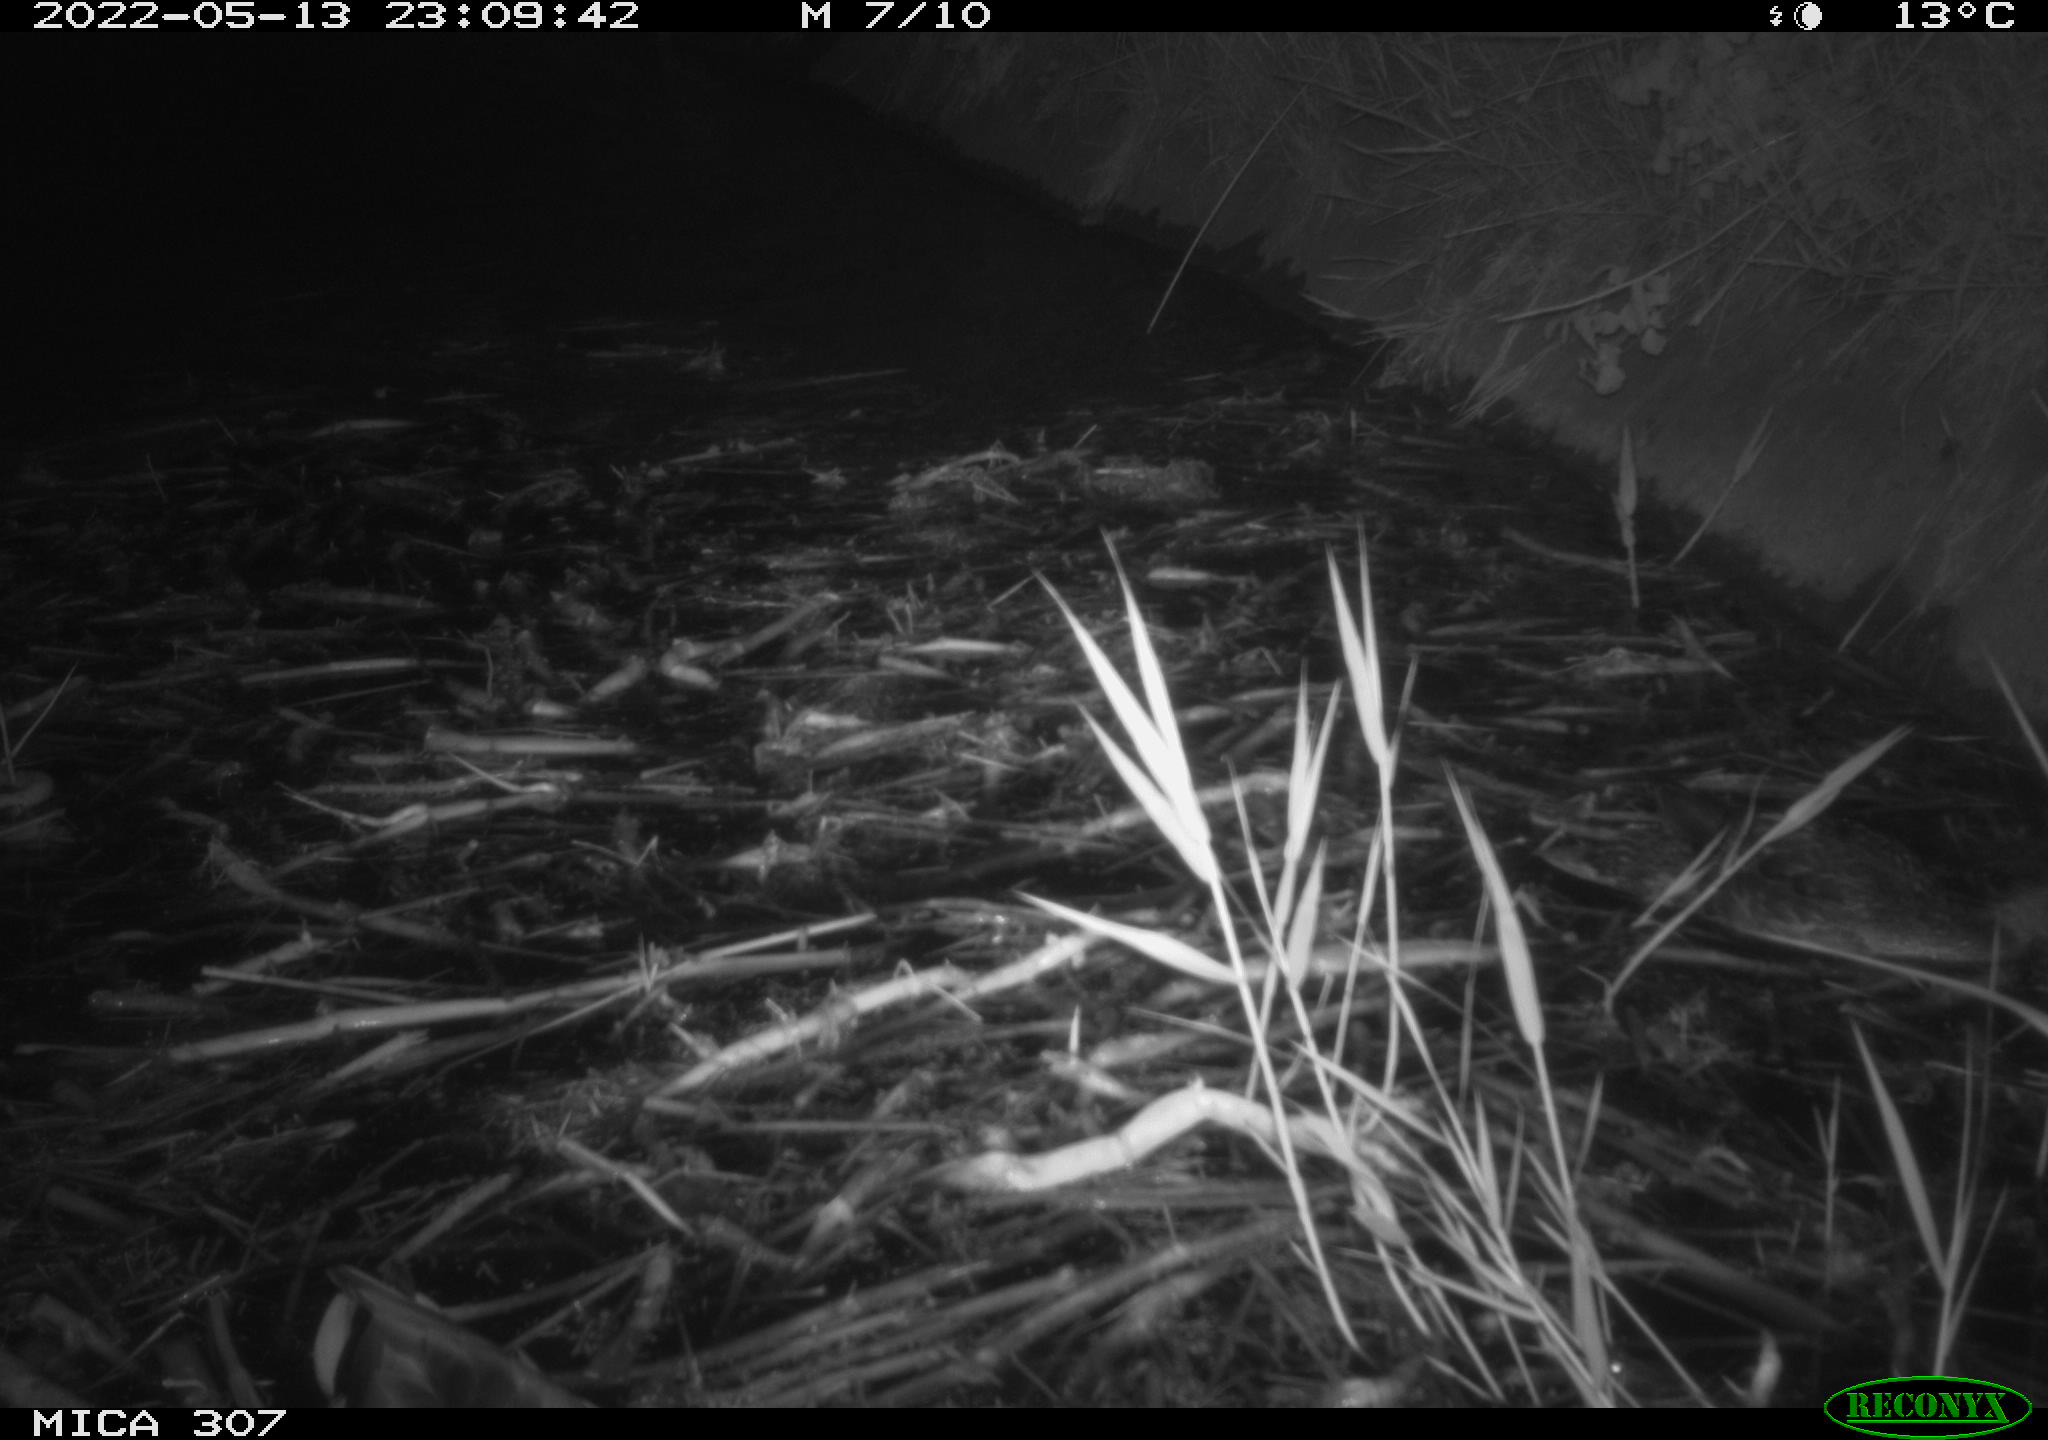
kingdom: Animalia
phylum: Chordata
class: Aves
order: Anseriformes
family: Anatidae
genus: Anas
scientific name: Anas platyrhynchos
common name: Mallard
